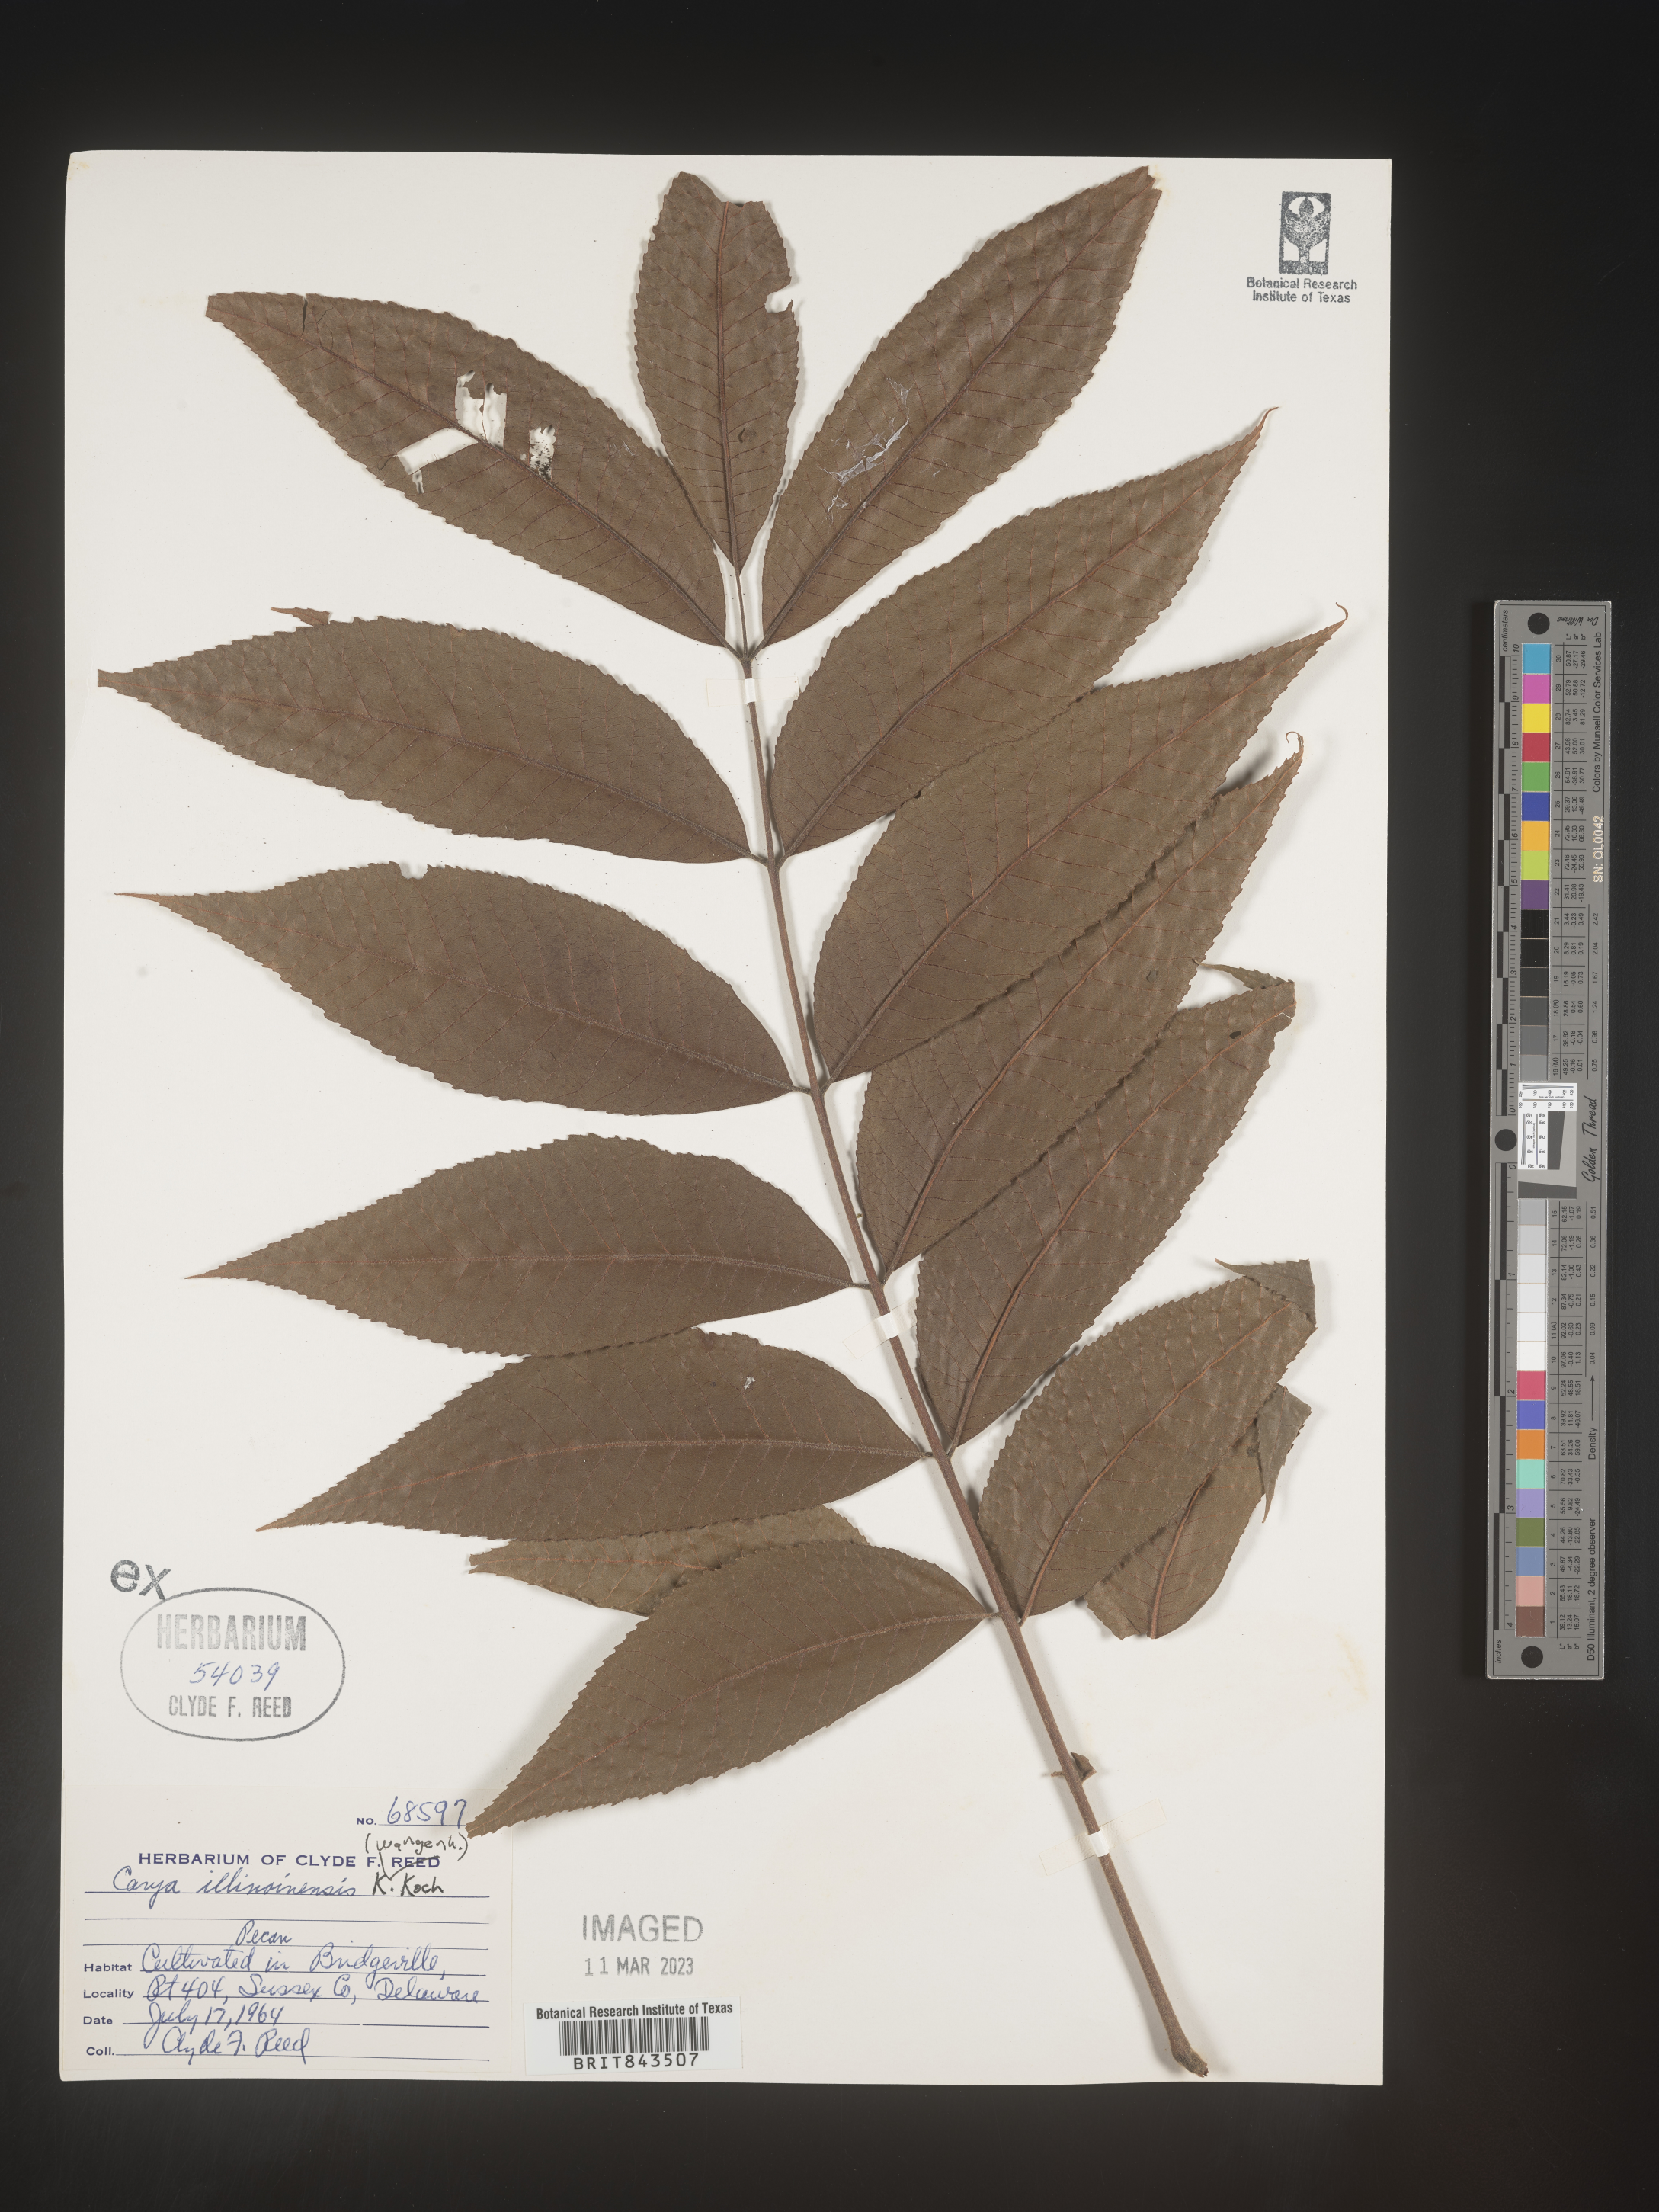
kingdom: Plantae
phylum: Tracheophyta
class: Magnoliopsida
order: Fagales
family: Juglandaceae
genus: Carya
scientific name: Carya illinoinensis
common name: Pecan
